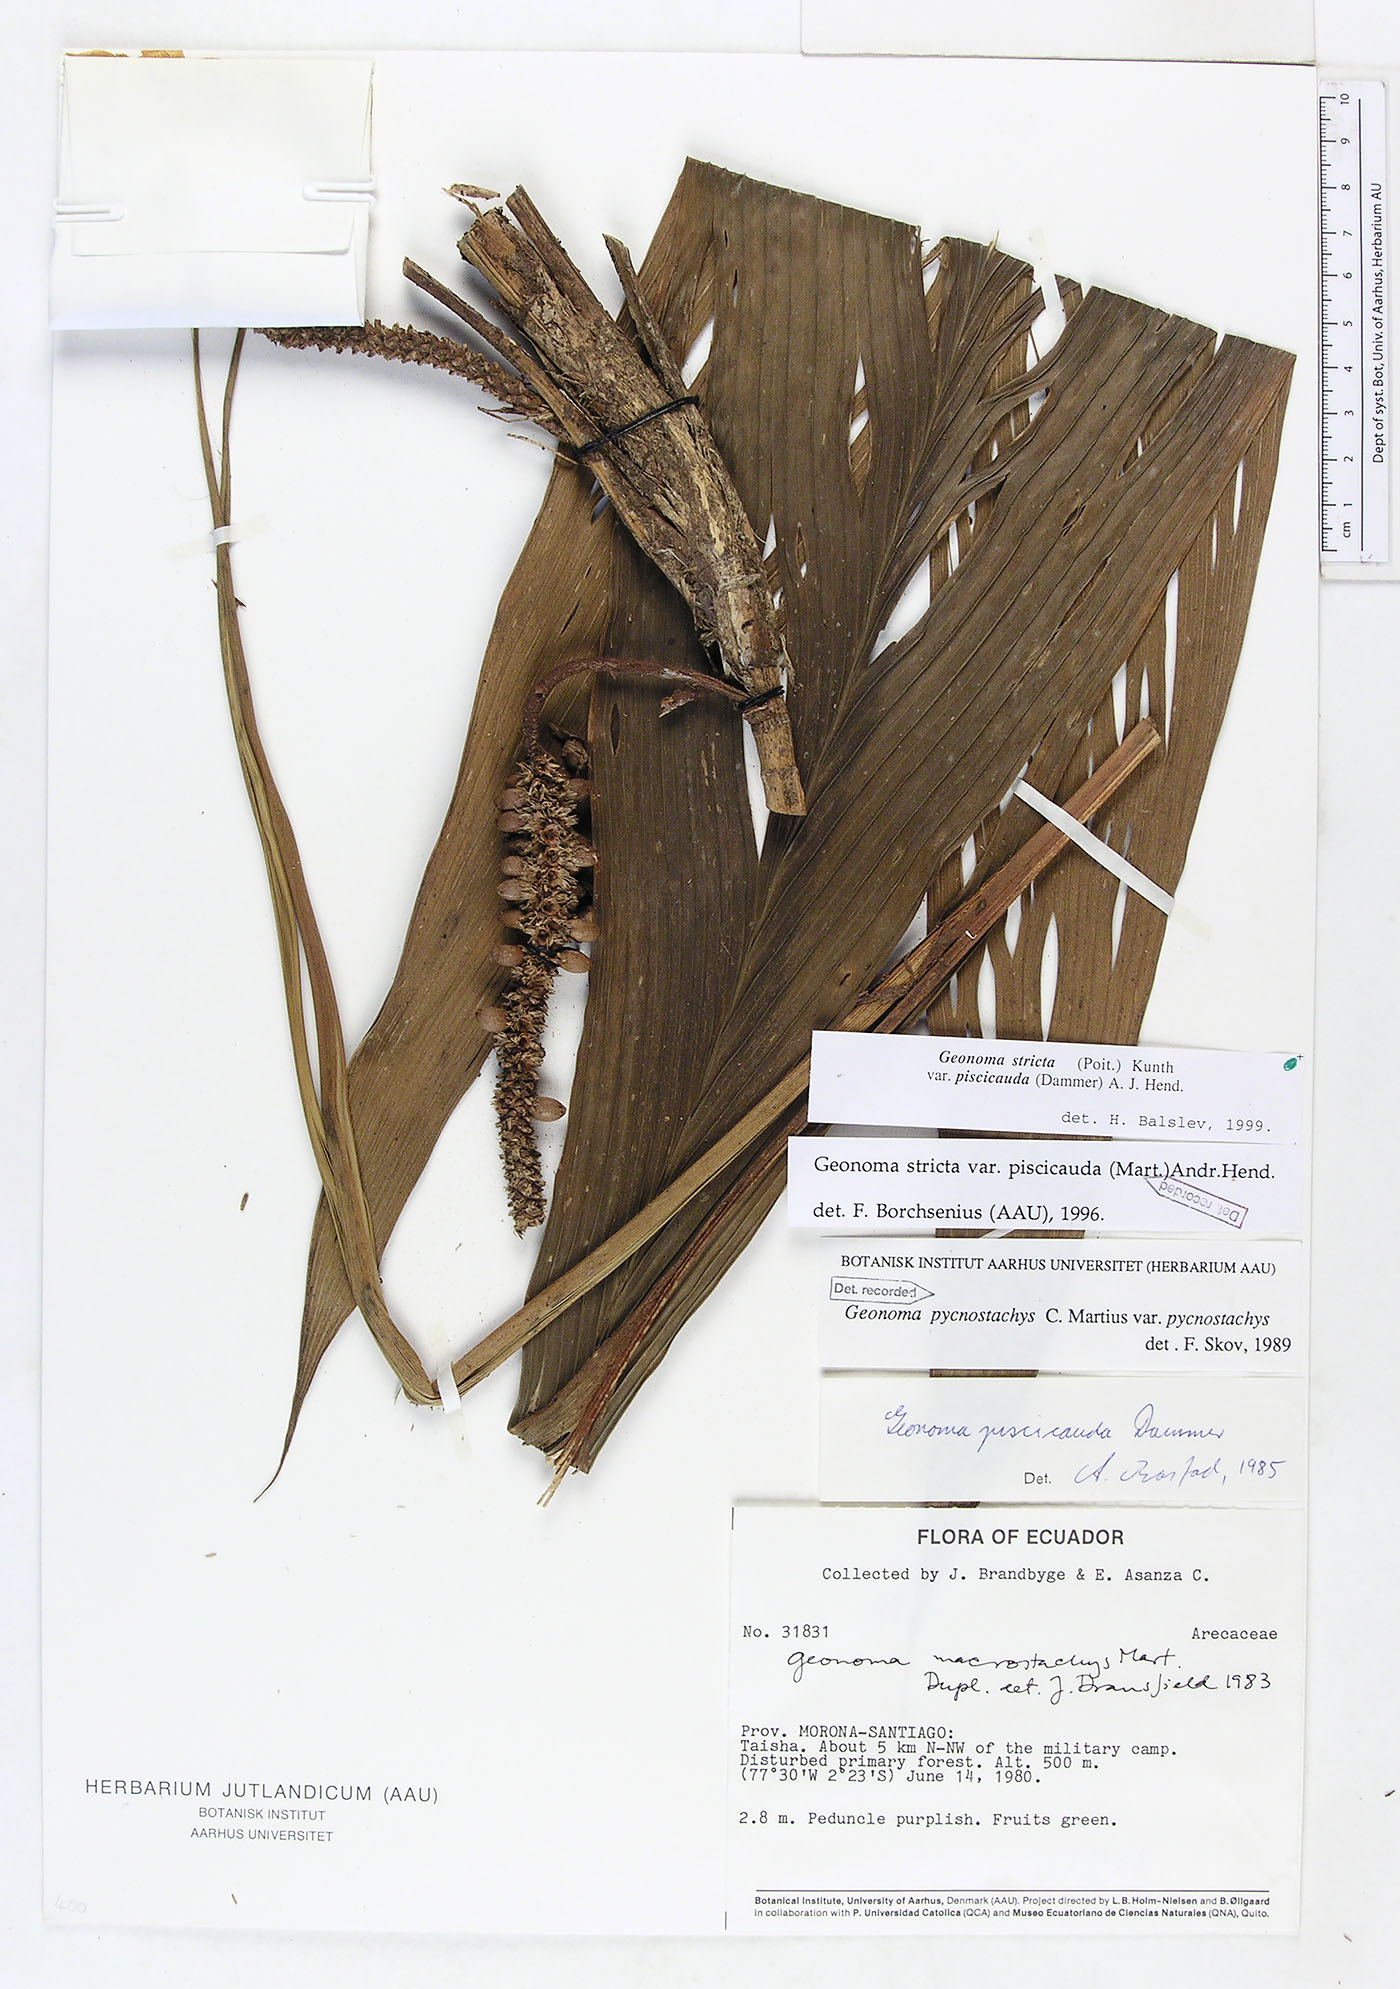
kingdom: Plantae
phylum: Tracheophyta
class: Liliopsida
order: Arecales
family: Arecaceae
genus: Geonoma
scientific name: Geonoma stricta
